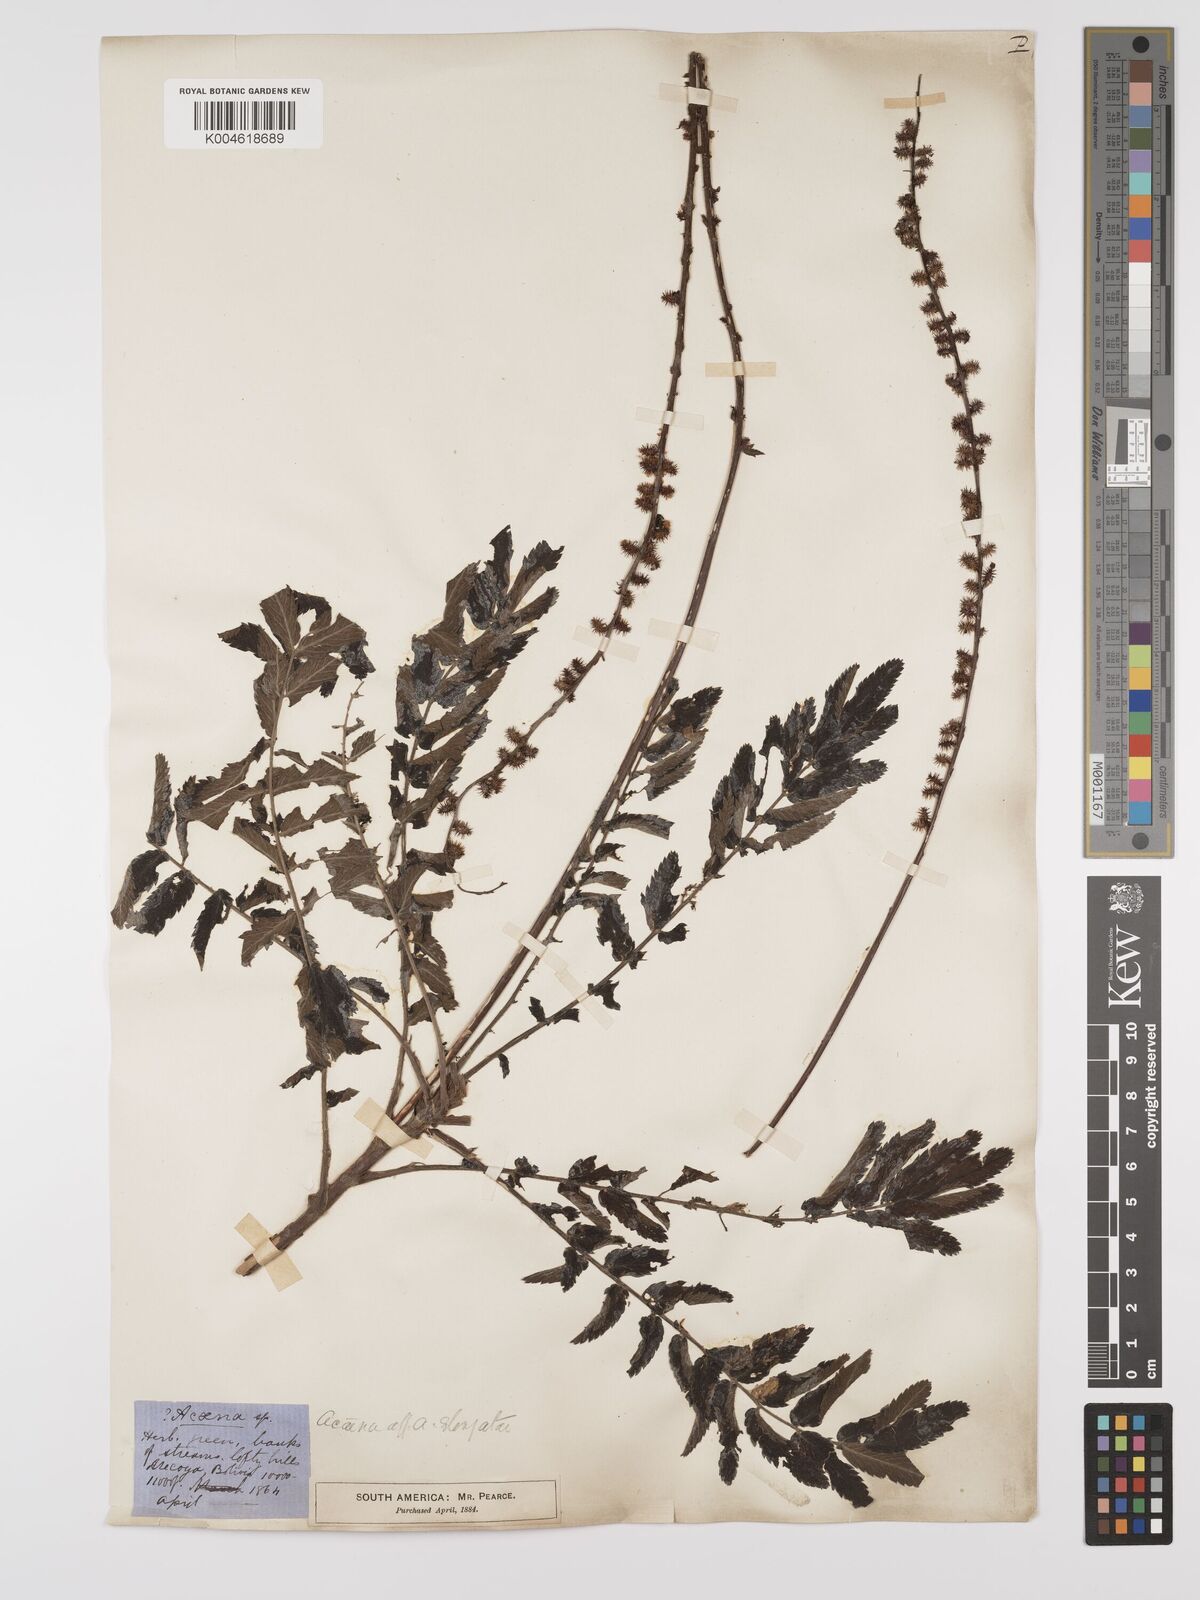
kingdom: Plantae
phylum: Tracheophyta
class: Magnoliopsida
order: Rosales
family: Rosaceae
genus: Acaena
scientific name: Acaena stricta
